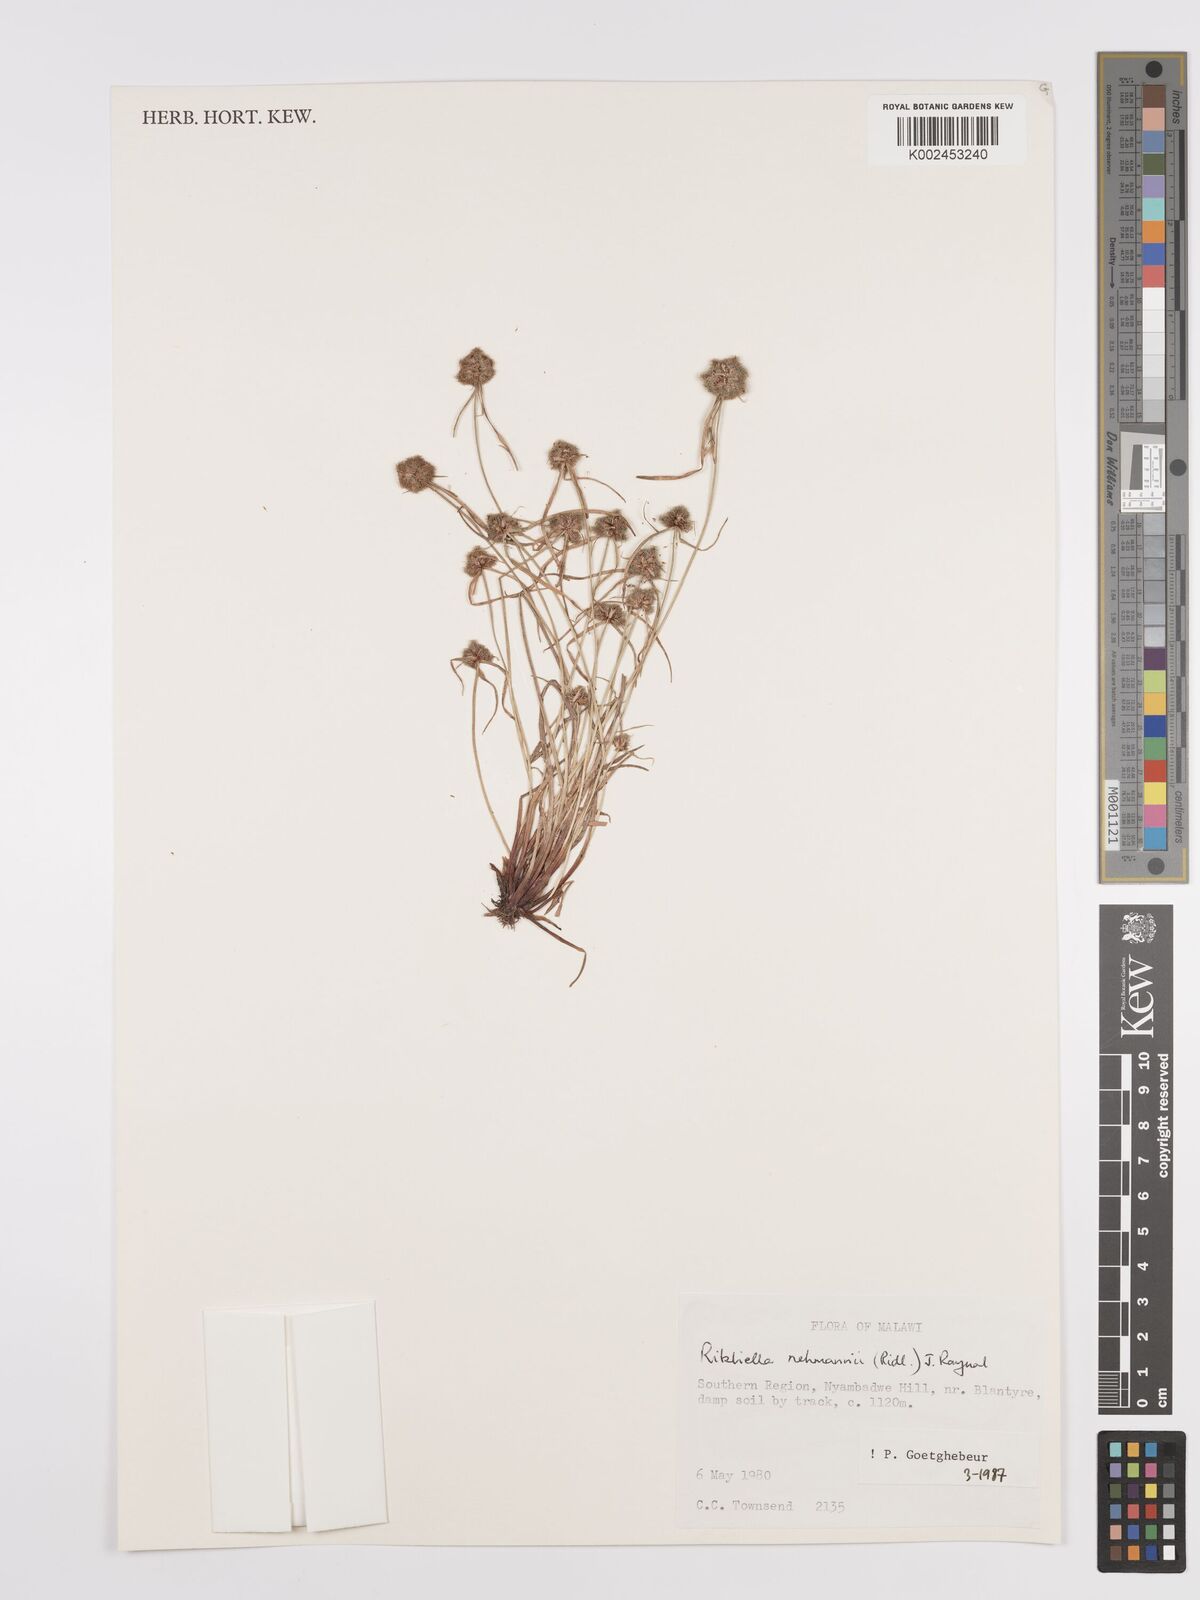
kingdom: Plantae
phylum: Tracheophyta
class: Liliopsida
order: Poales
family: Cyperaceae
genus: Cyperus
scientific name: Cyperus sanguinolentus
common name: Purpleglume flatsedge
